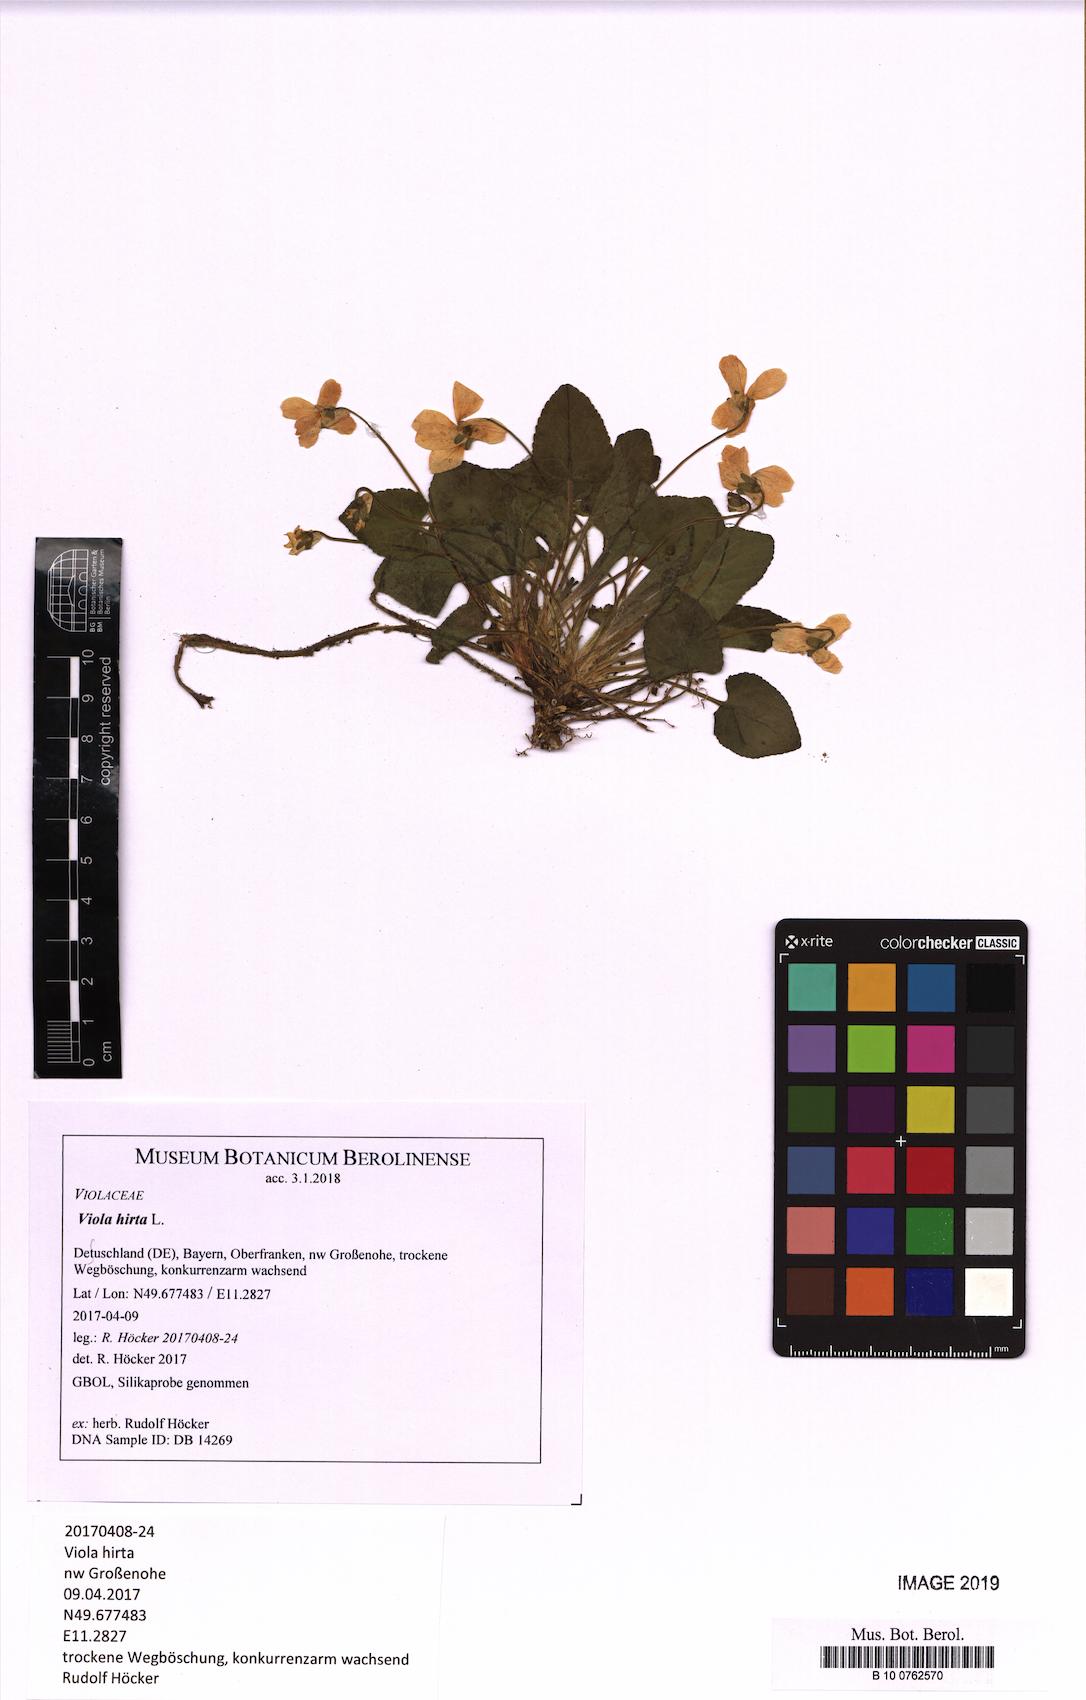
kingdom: Plantae
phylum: Tracheophyta
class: Magnoliopsida
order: Malpighiales
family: Violaceae
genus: Viola
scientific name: Viola hirta
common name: Hairy violet
